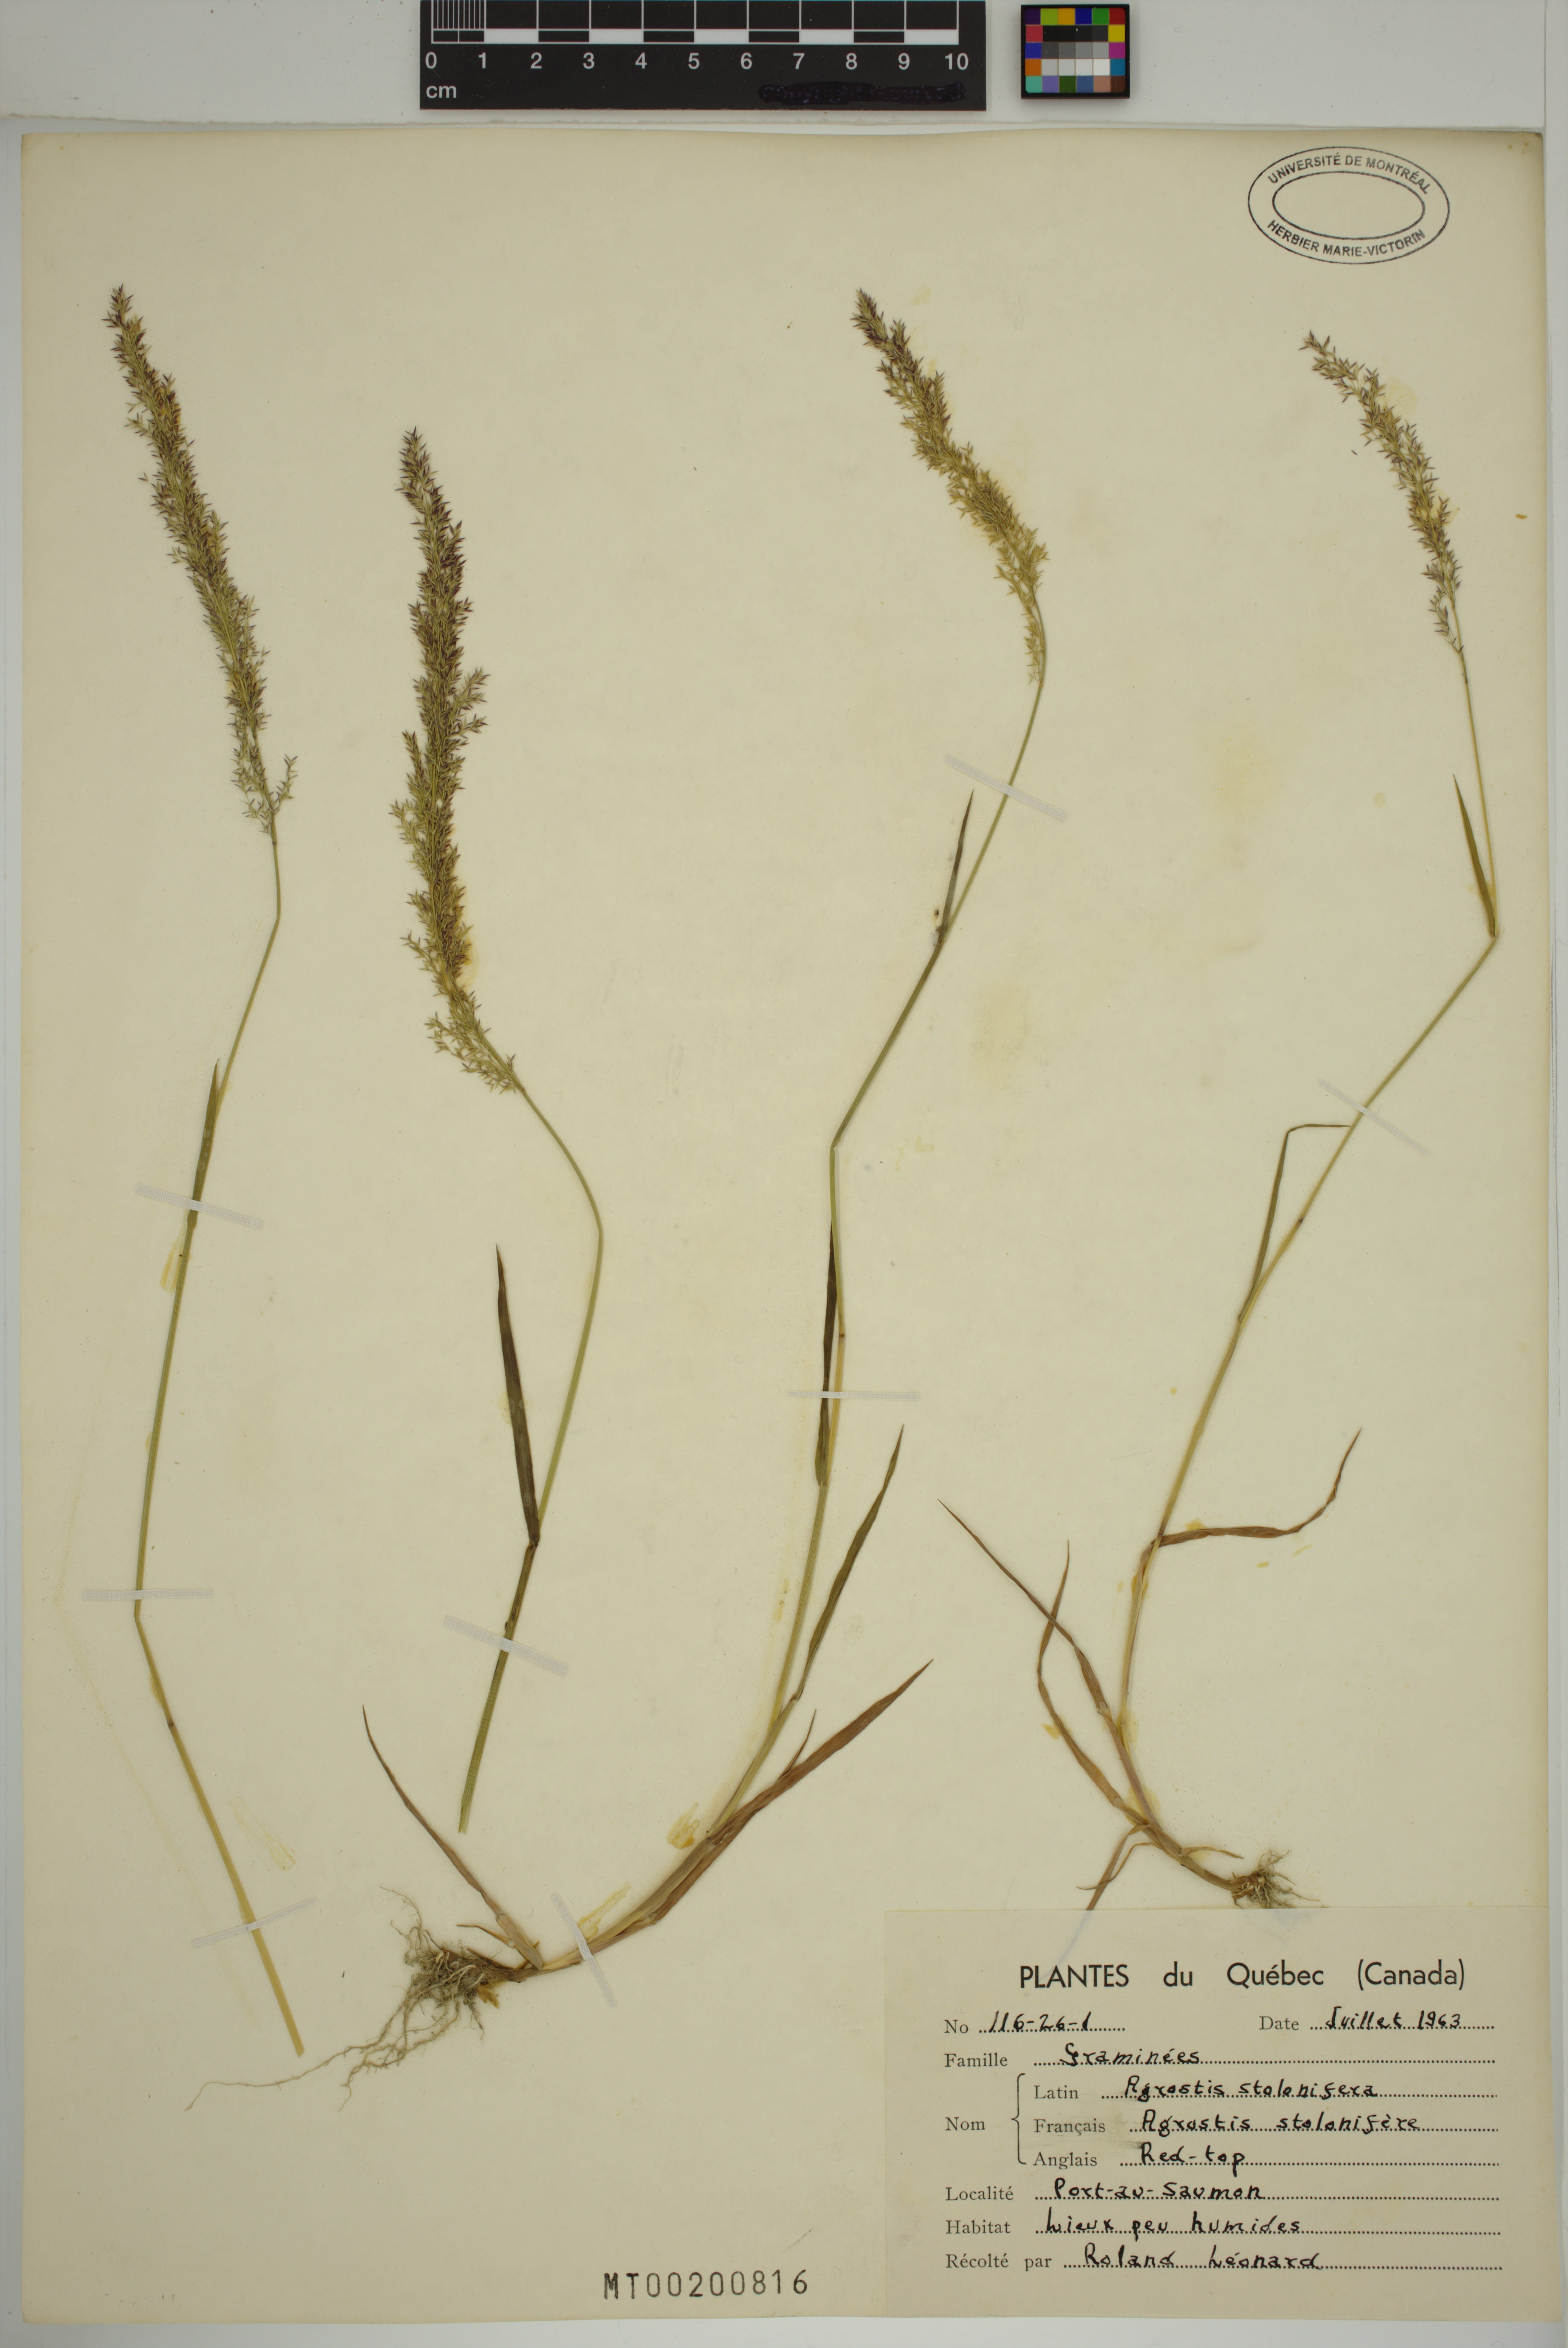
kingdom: Plantae
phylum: Tracheophyta
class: Liliopsida
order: Poales
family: Poaceae
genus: Agrostis
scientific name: Agrostis stolonifera
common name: Creeping bentgrass
